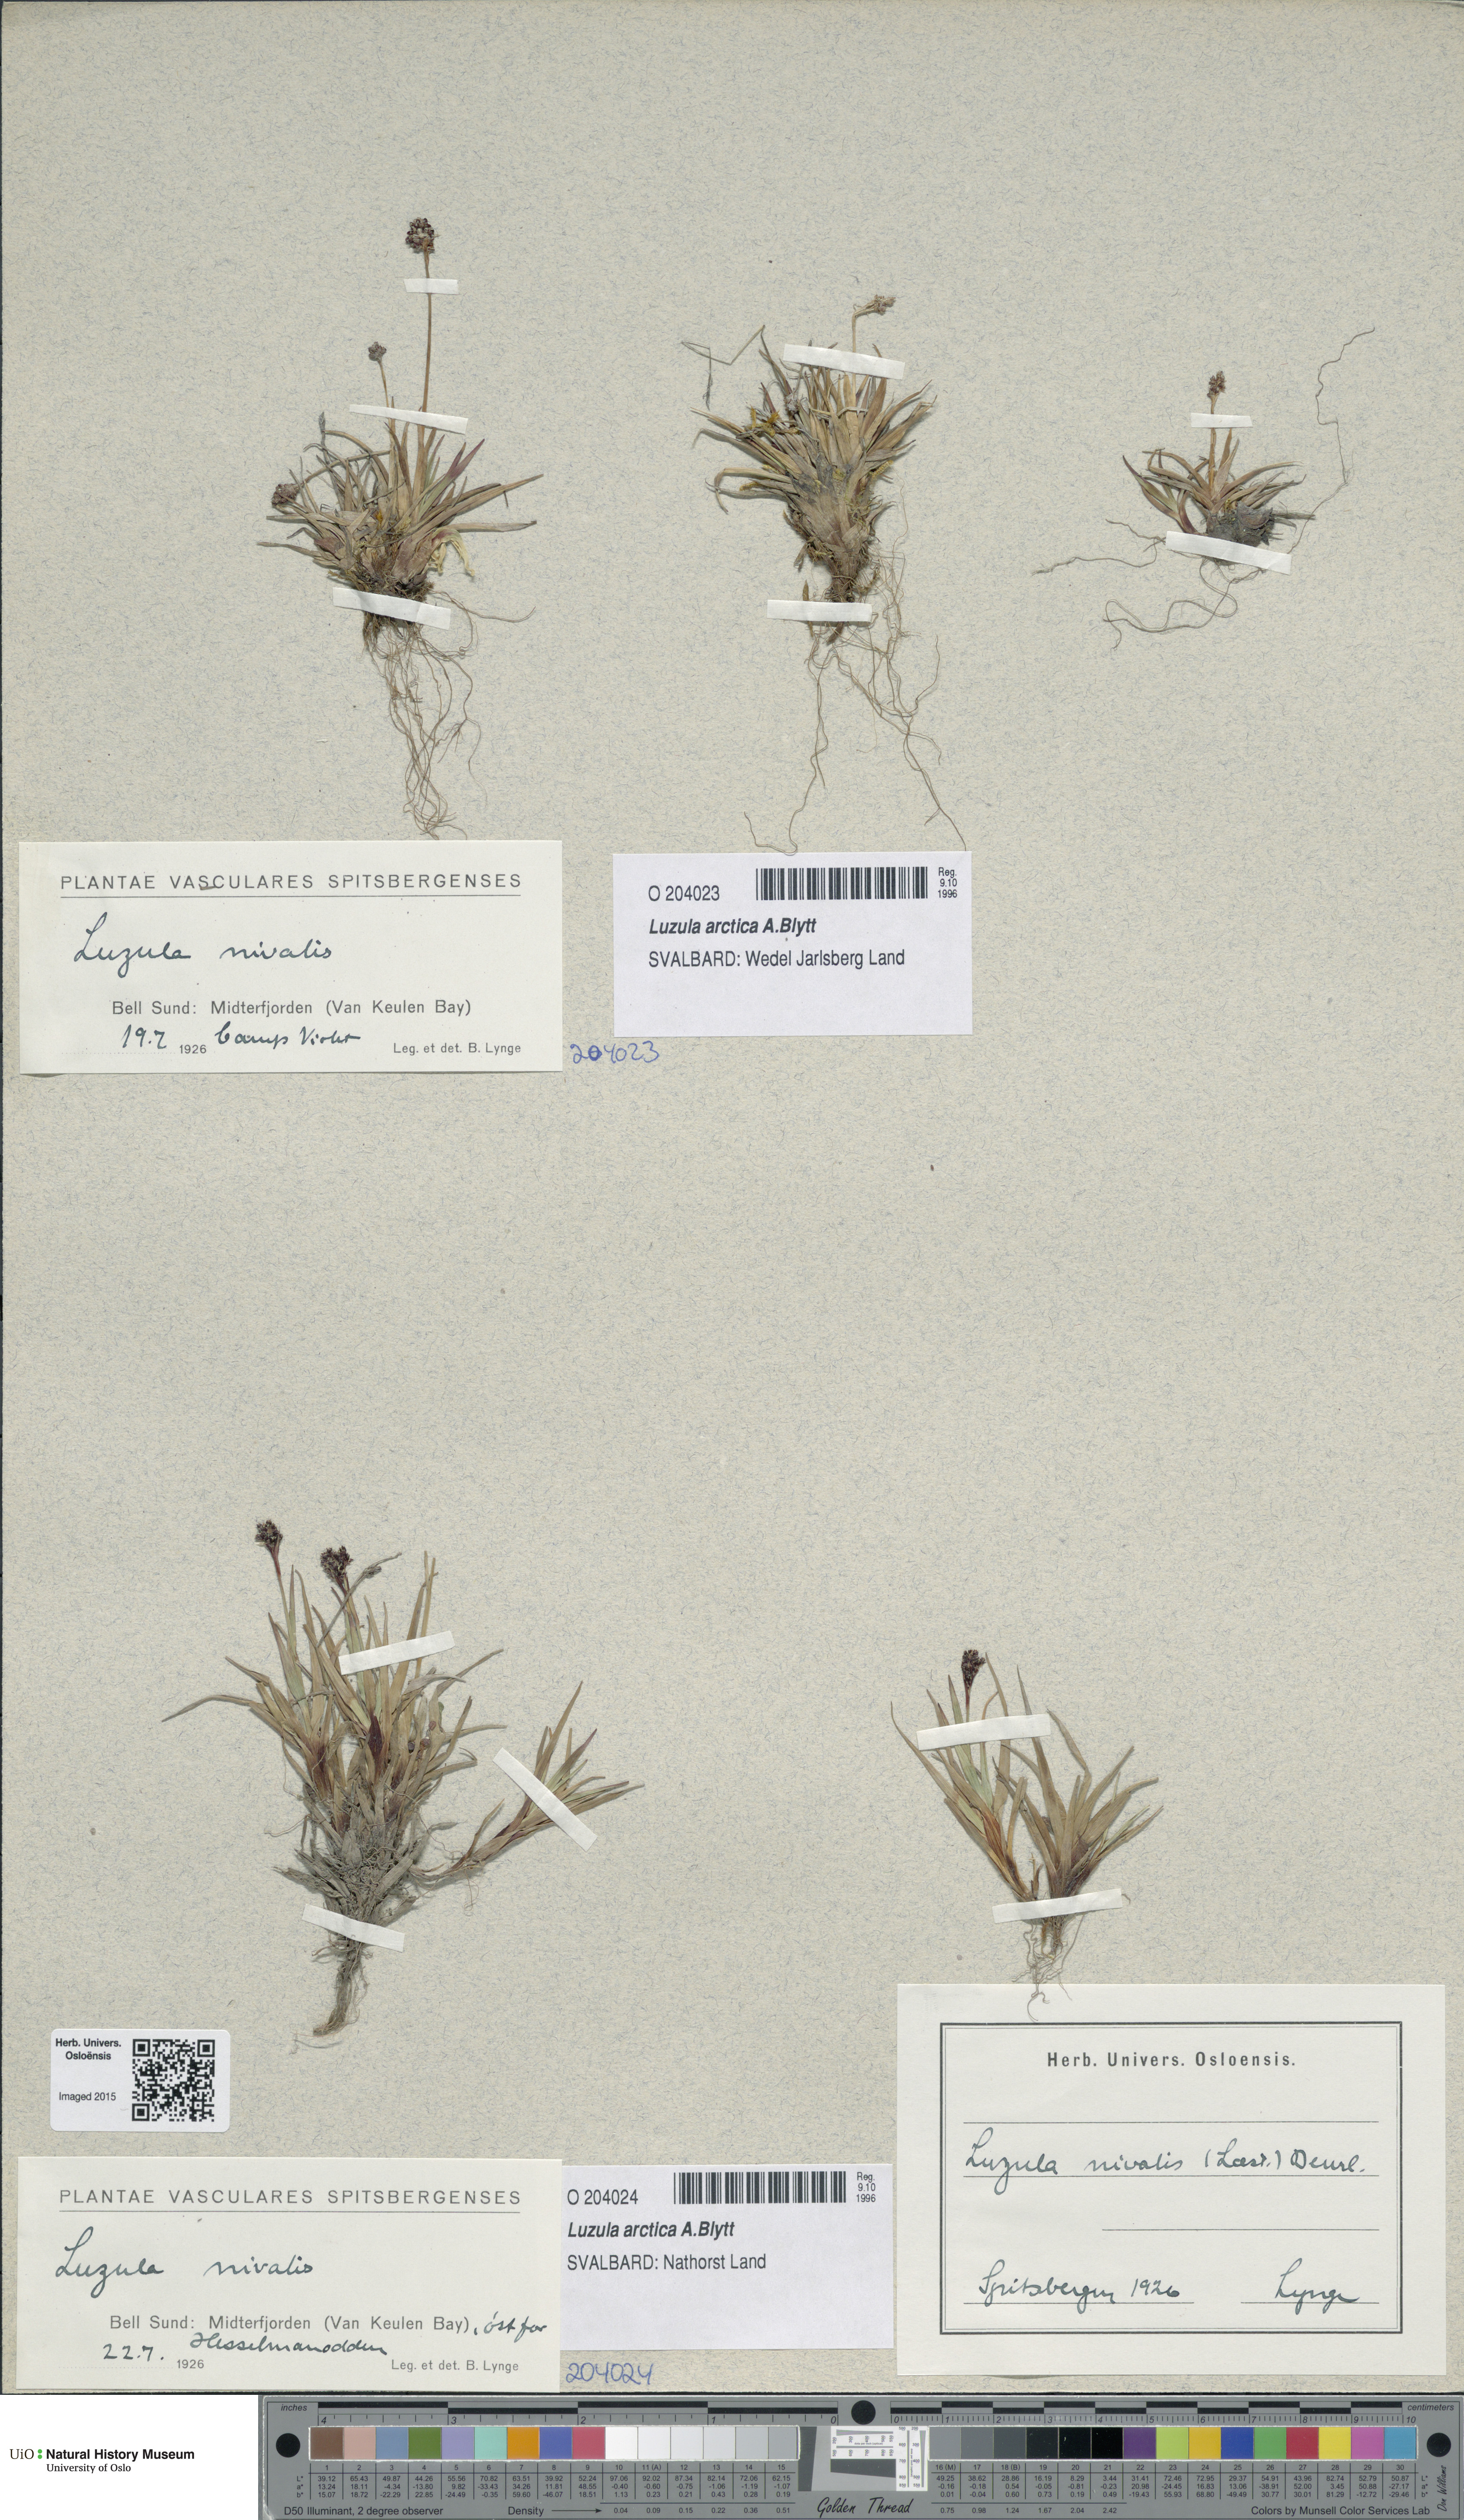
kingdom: Plantae
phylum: Tracheophyta
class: Liliopsida
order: Poales
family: Juncaceae
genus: Luzula
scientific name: Luzula nivalis
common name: Arctic woodrush
